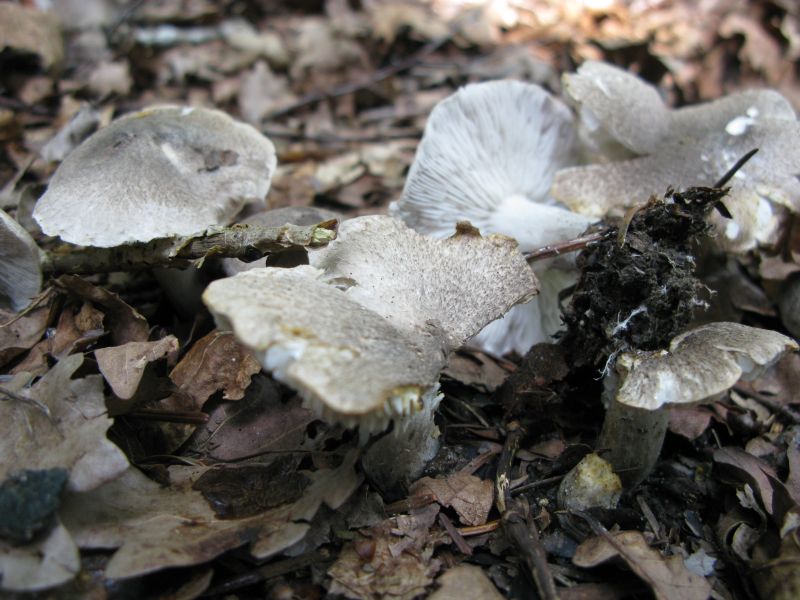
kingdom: Fungi
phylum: Basidiomycota
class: Agaricomycetes
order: Agaricales
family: Tricholomataceae
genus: Tricholoma
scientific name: Tricholoma scalpturatum
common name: gulplettet ridderhat
